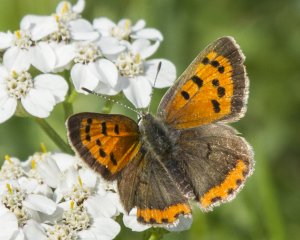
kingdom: Animalia
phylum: Arthropoda
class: Insecta
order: Lepidoptera
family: Lycaenidae
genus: Lycaena
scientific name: Lycaena phlaeas
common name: American Copper
